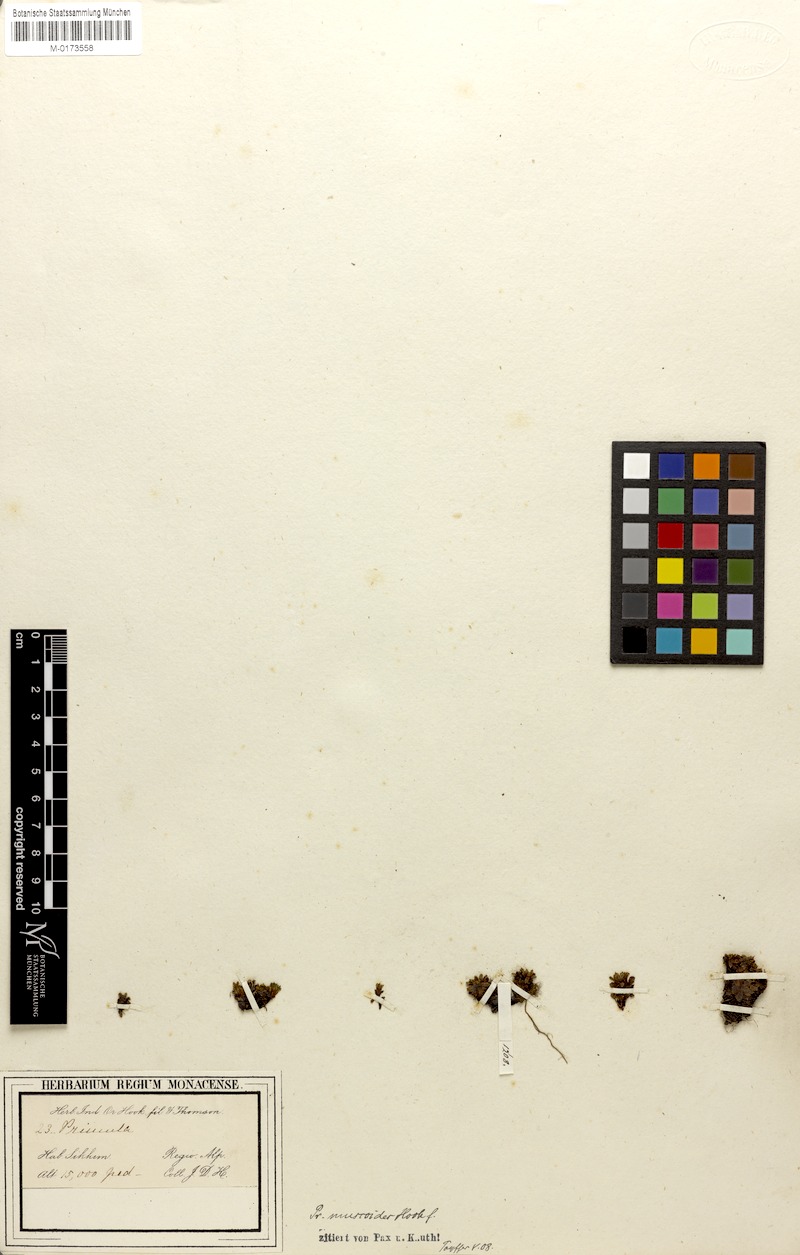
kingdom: Plantae
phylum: Tracheophyta
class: Magnoliopsida
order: Ericales
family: Primulaceae
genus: Primula
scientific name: Primula muscoides
